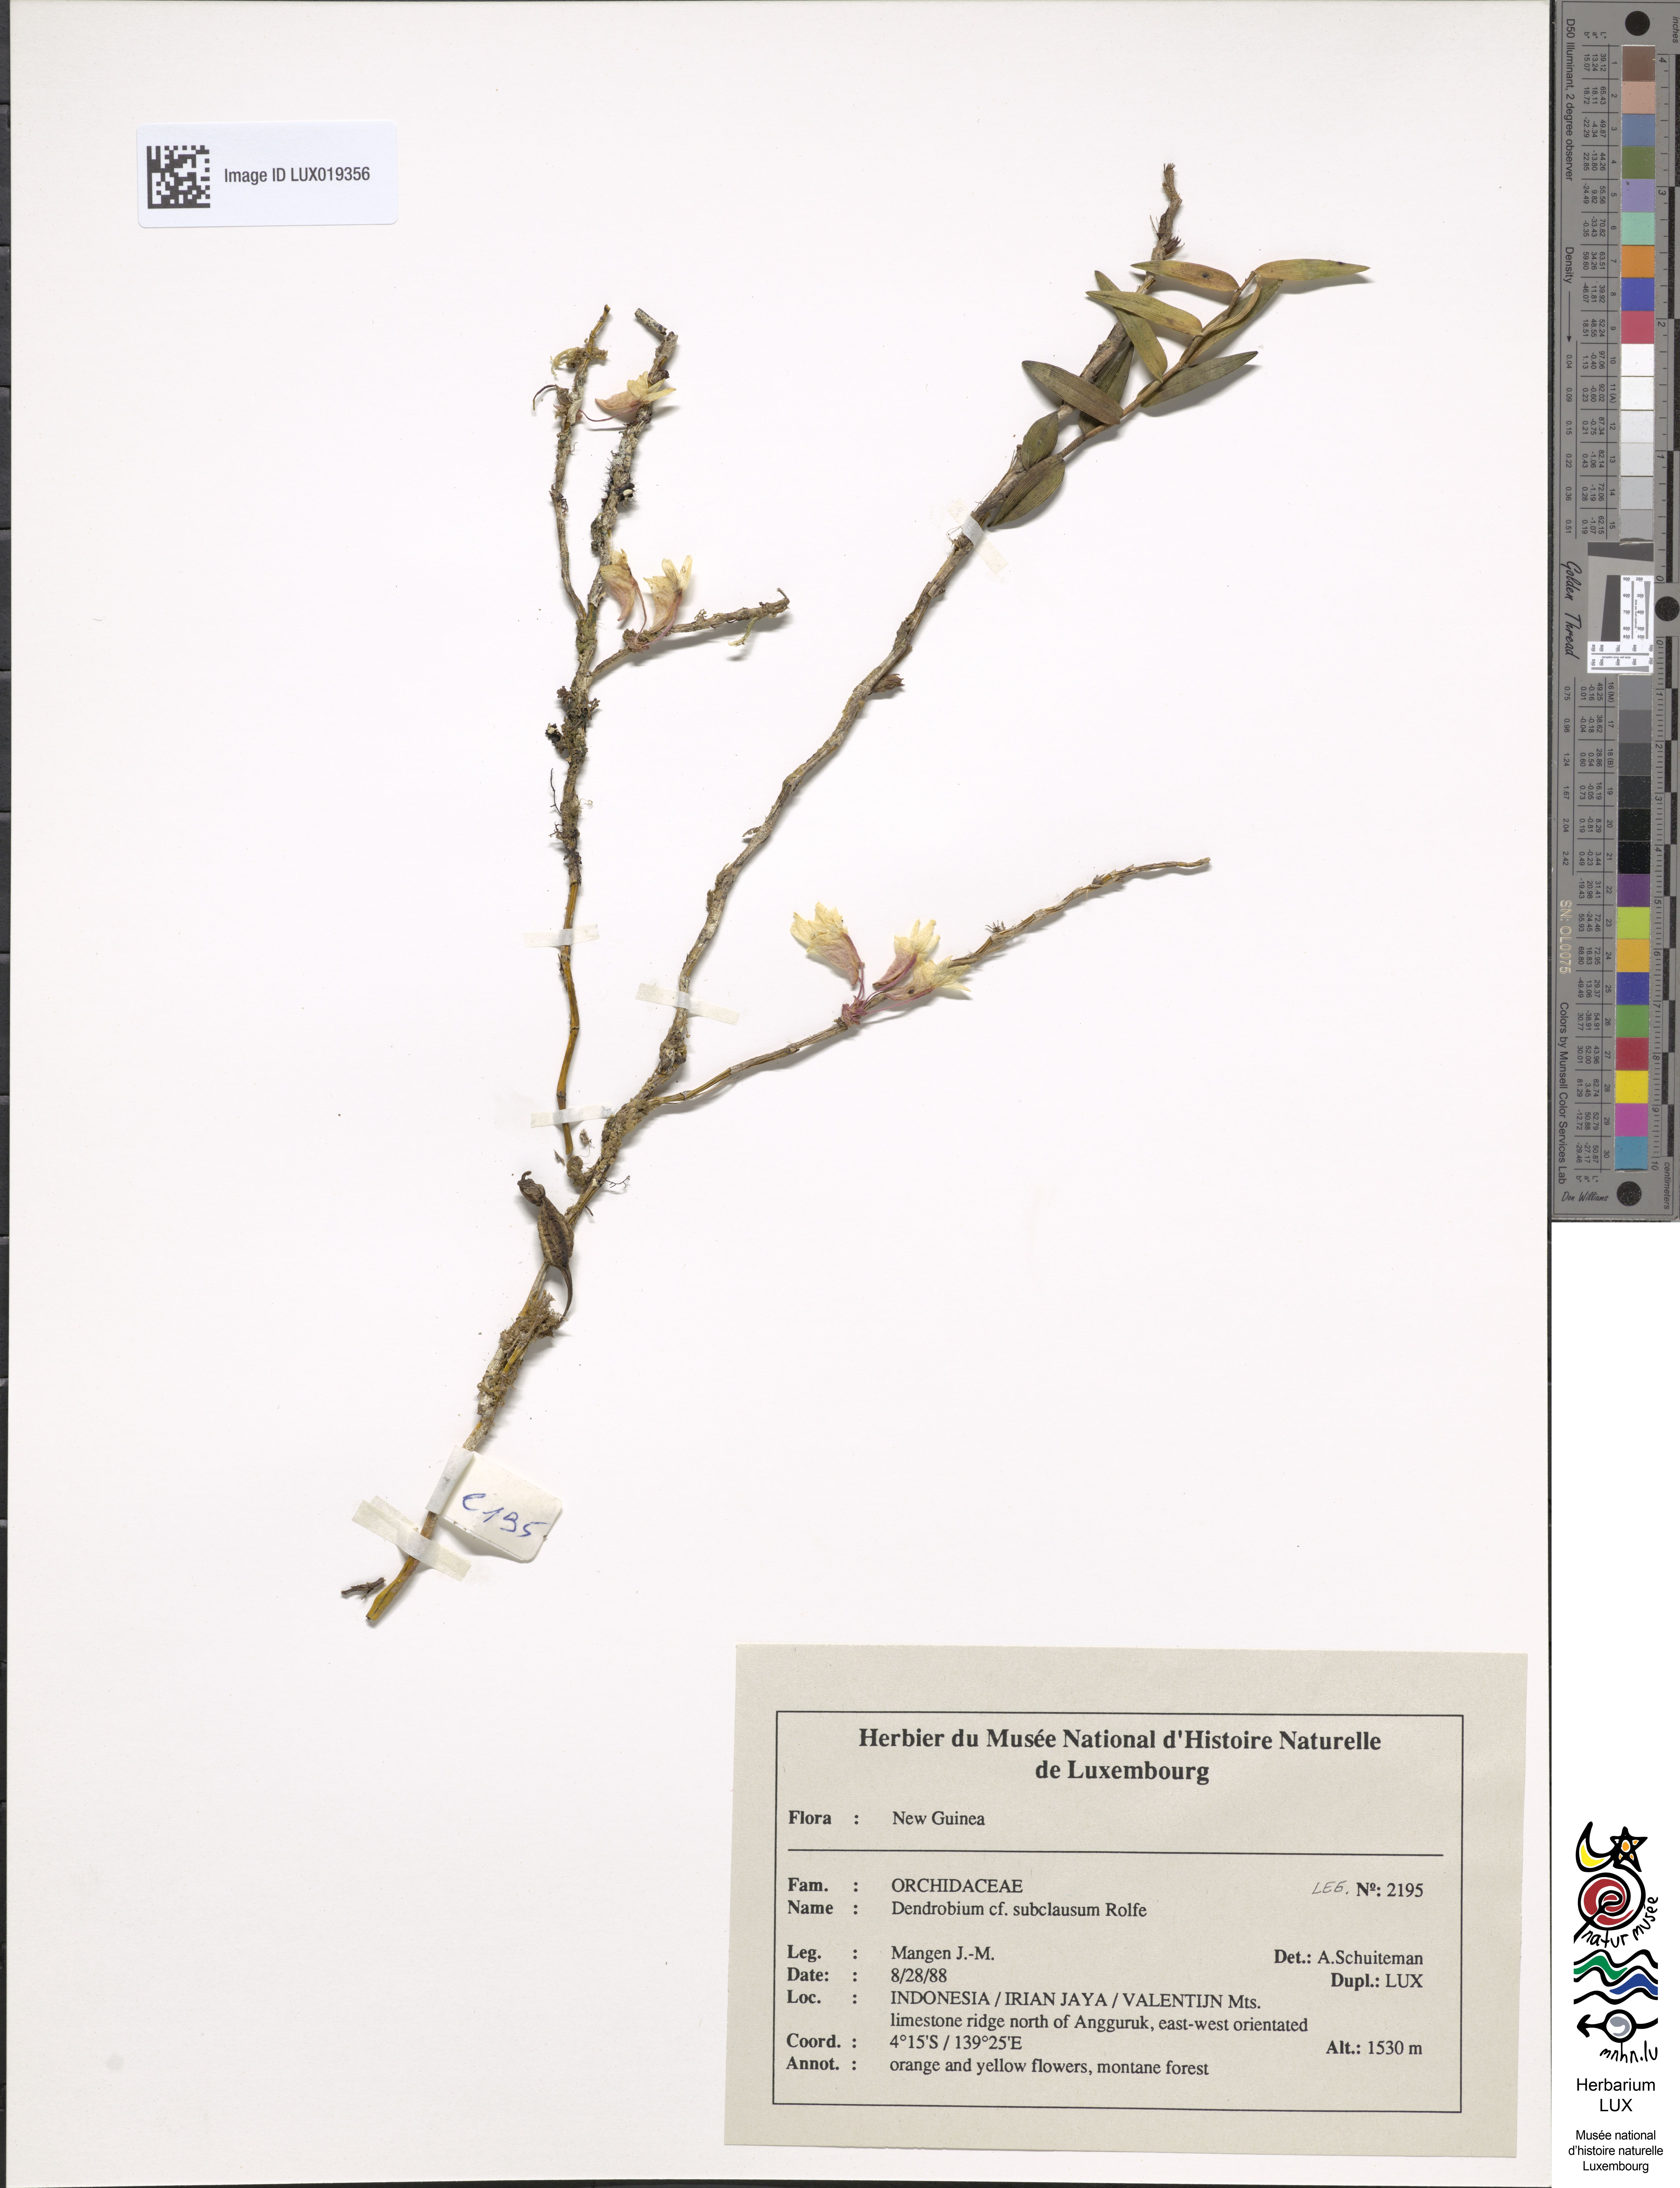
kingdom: Plantae
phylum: Tracheophyta
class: Liliopsida
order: Asparagales
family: Orchidaceae
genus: Dendrobium
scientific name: Dendrobium subclausum
